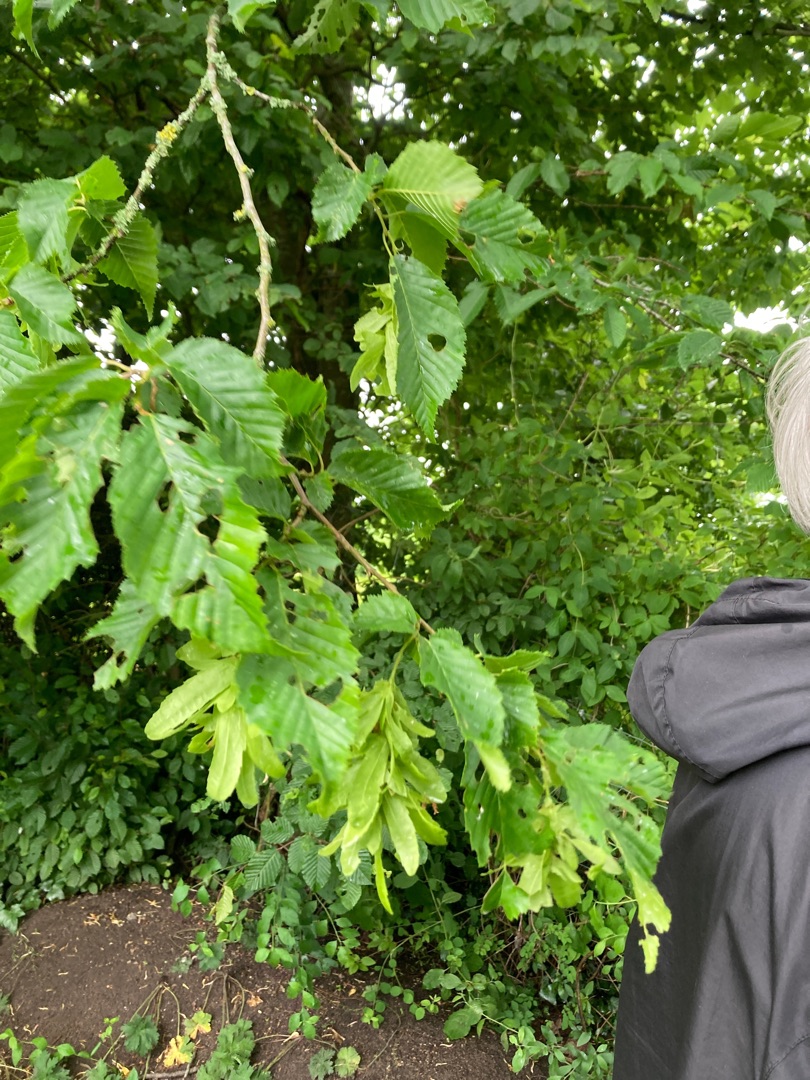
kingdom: Plantae
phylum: Tracheophyta
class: Magnoliopsida
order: Fagales
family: Betulaceae
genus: Carpinus
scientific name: Carpinus betulus
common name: Avnbøg
